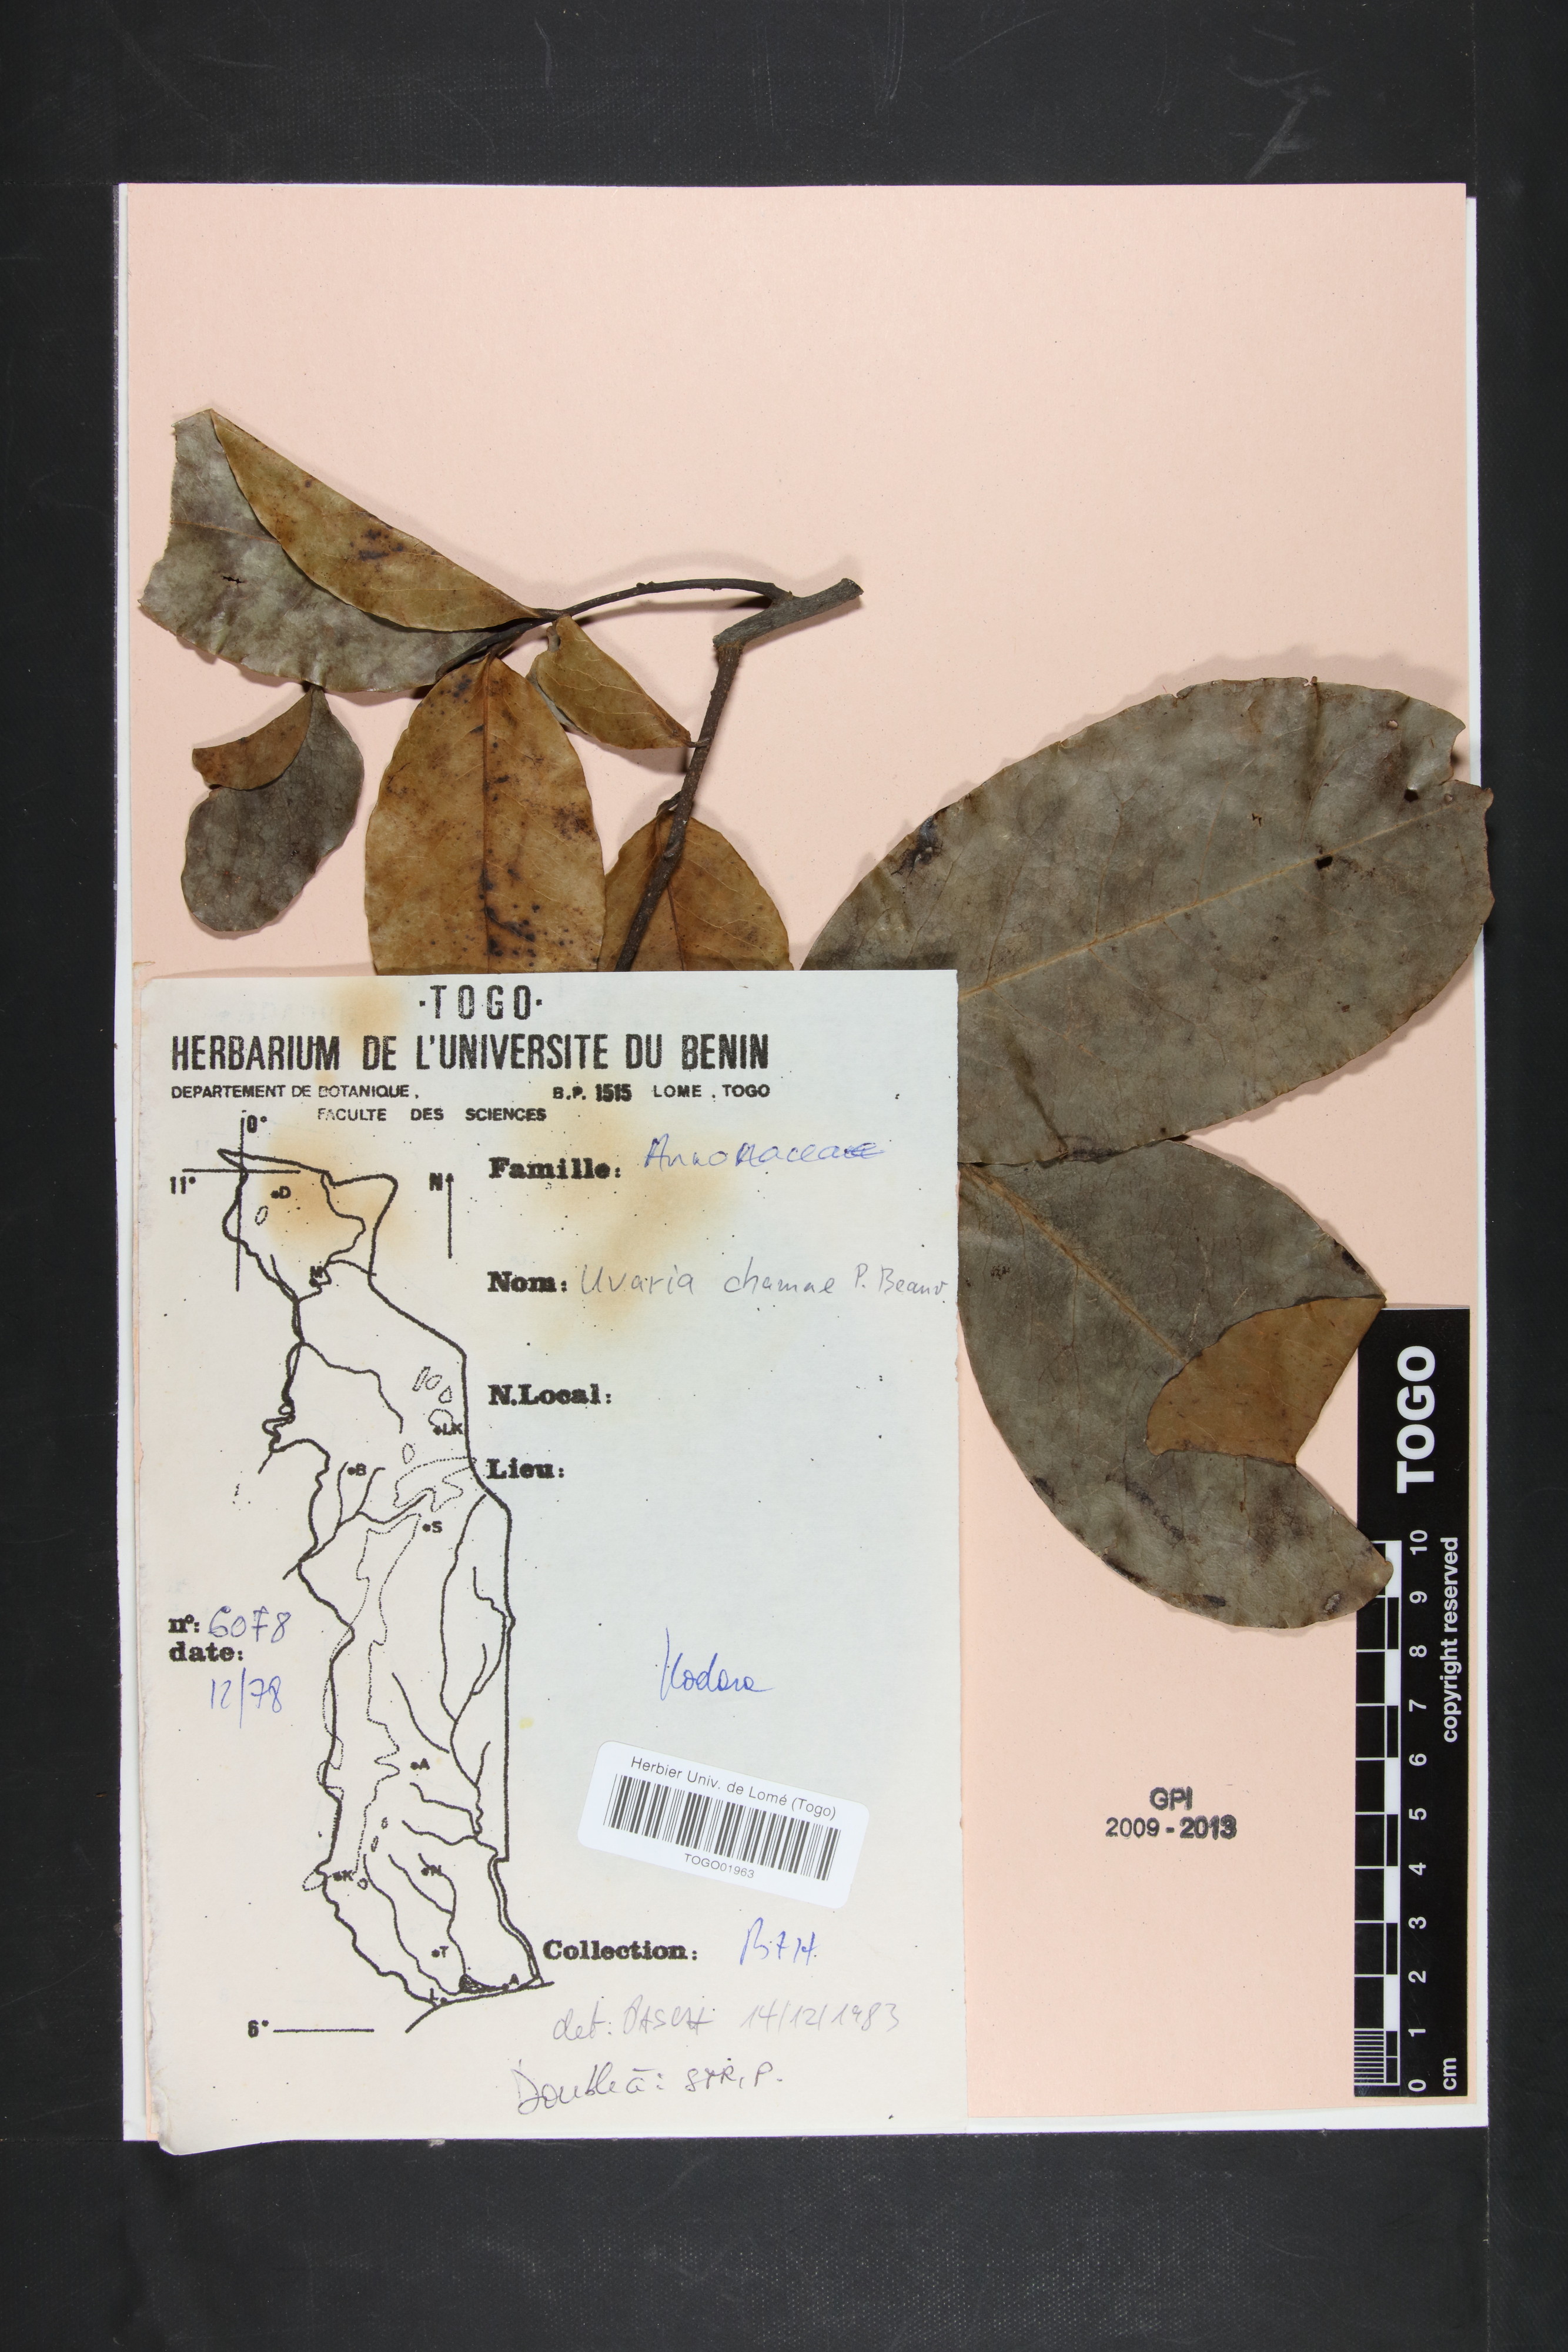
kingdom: Plantae
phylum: Tracheophyta
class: Magnoliopsida
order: Magnoliales
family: Annonaceae
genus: Uvaria
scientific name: Uvaria chamae
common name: Finger-root
